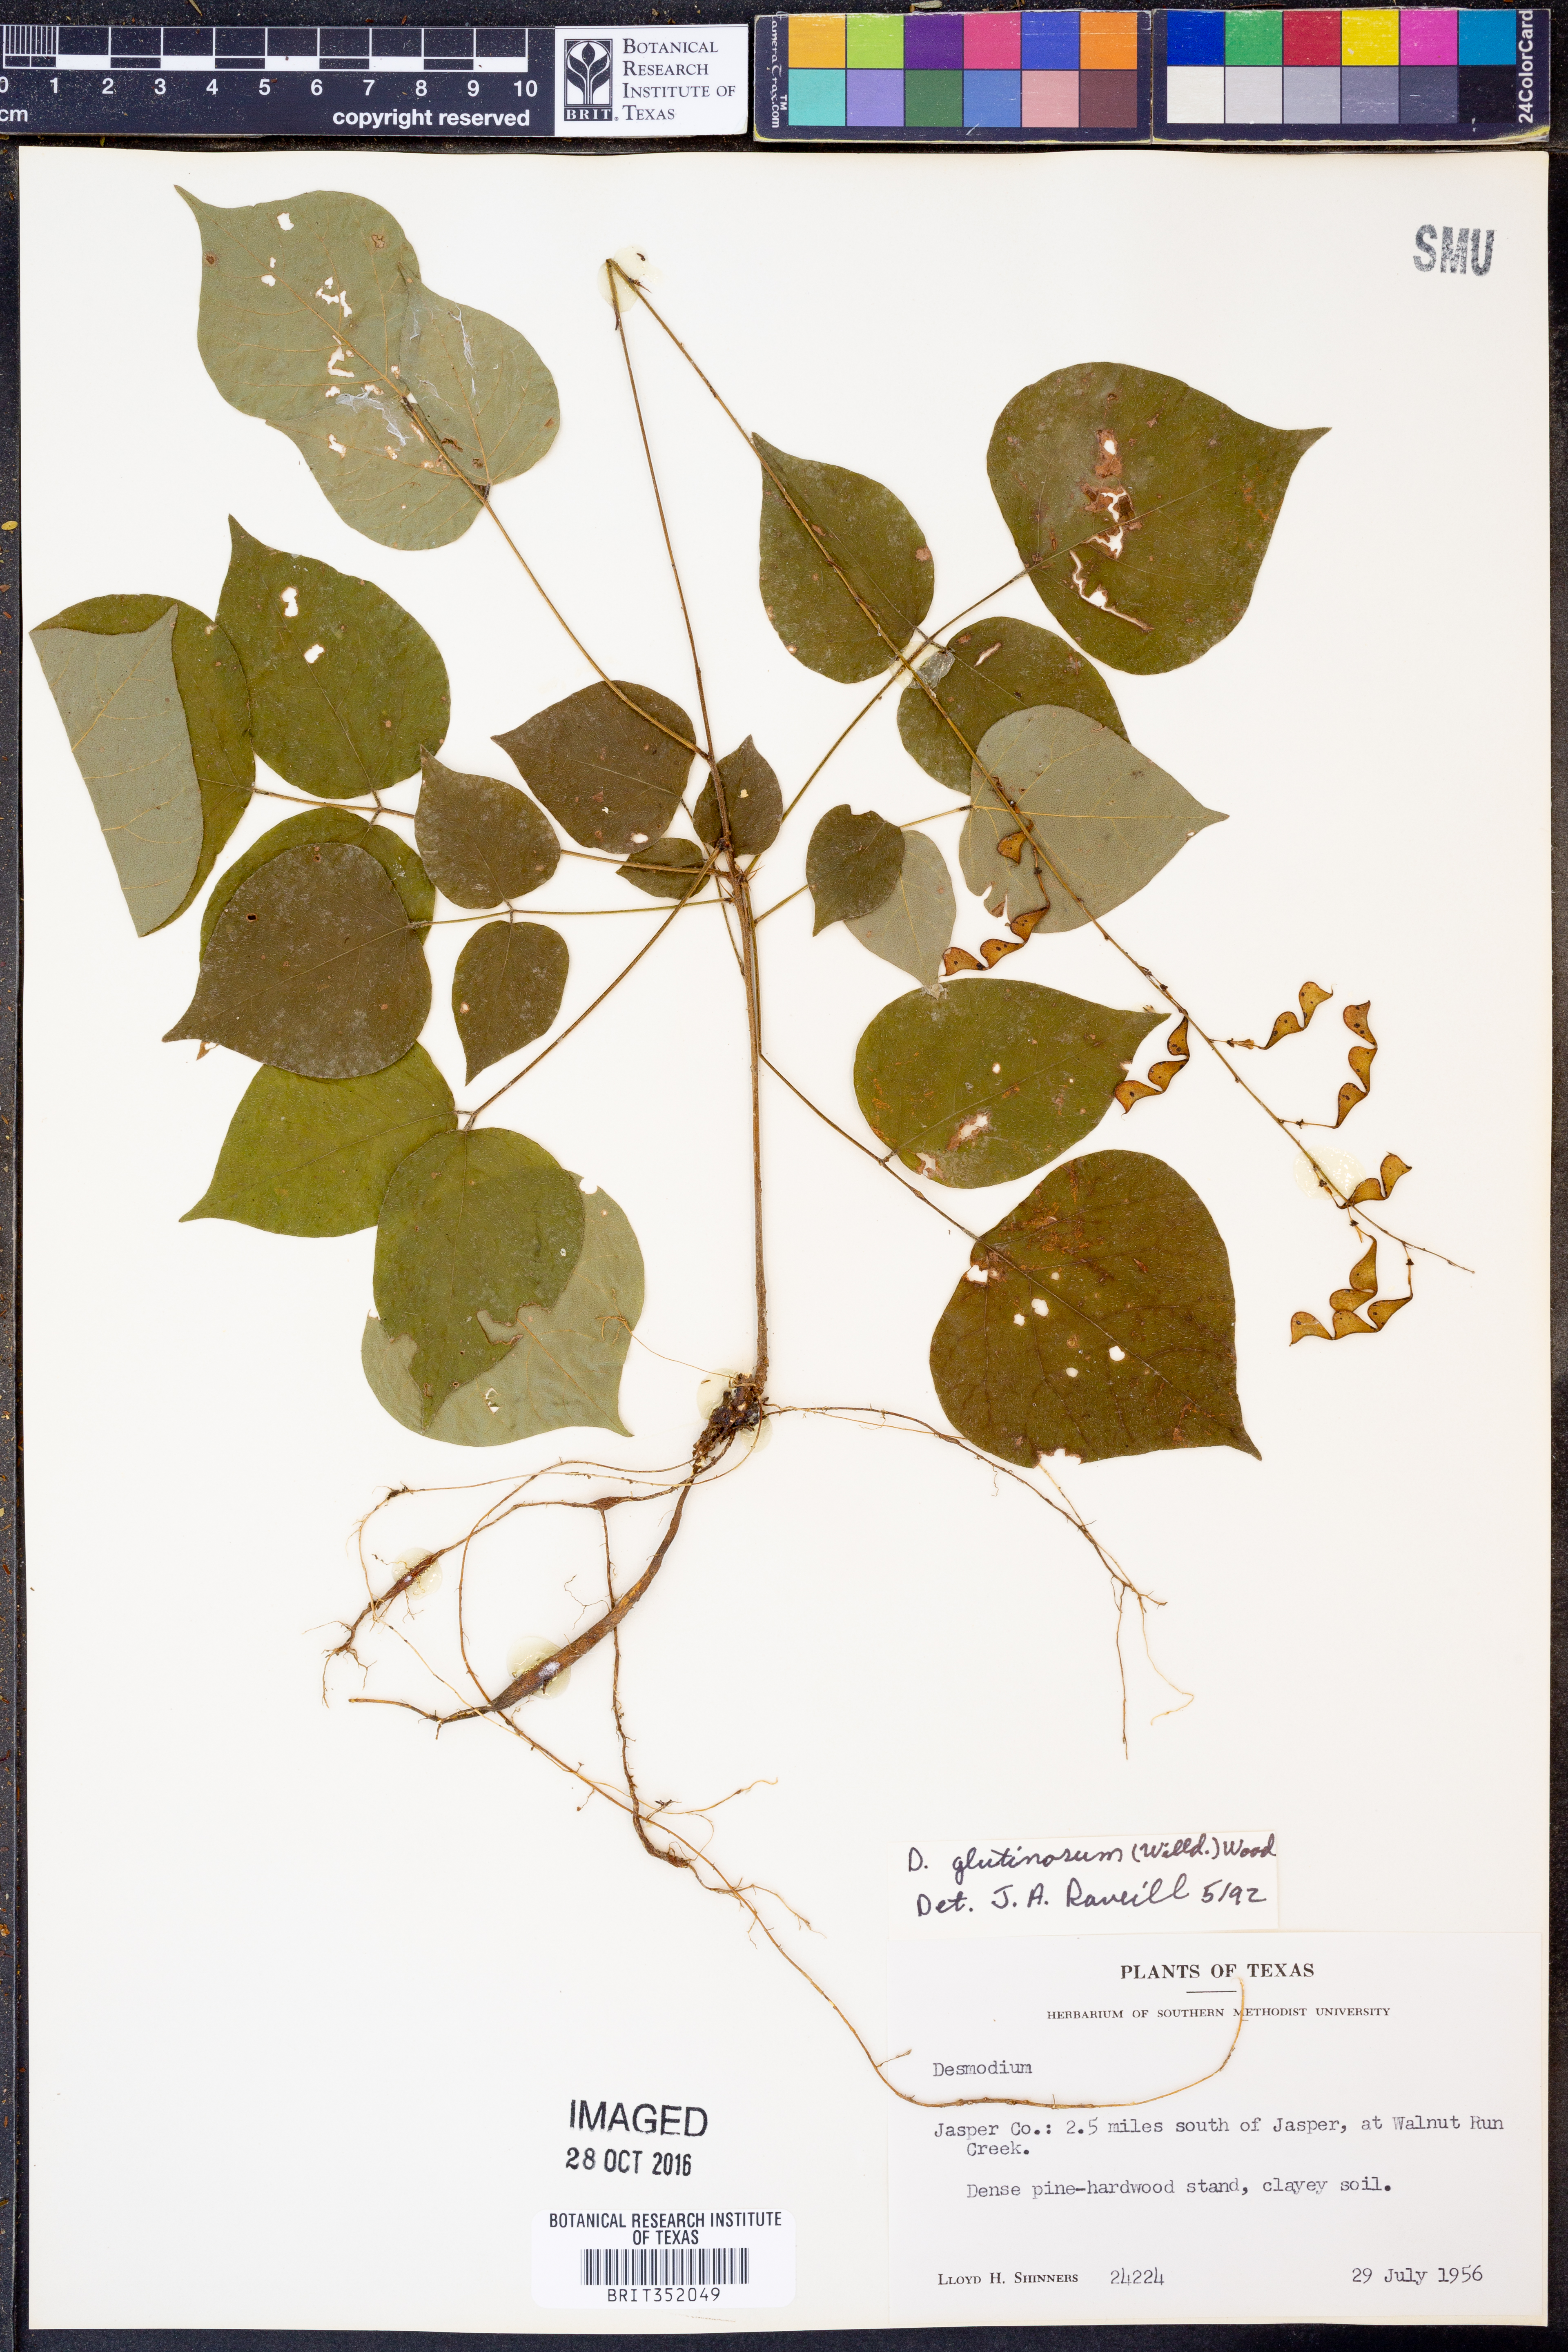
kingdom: Plantae
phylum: Tracheophyta
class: Magnoliopsida
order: Fabales
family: Fabaceae
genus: Hylodesmum
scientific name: Hylodesmum glutinosum
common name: Clustered-leaved tick-trefoil
